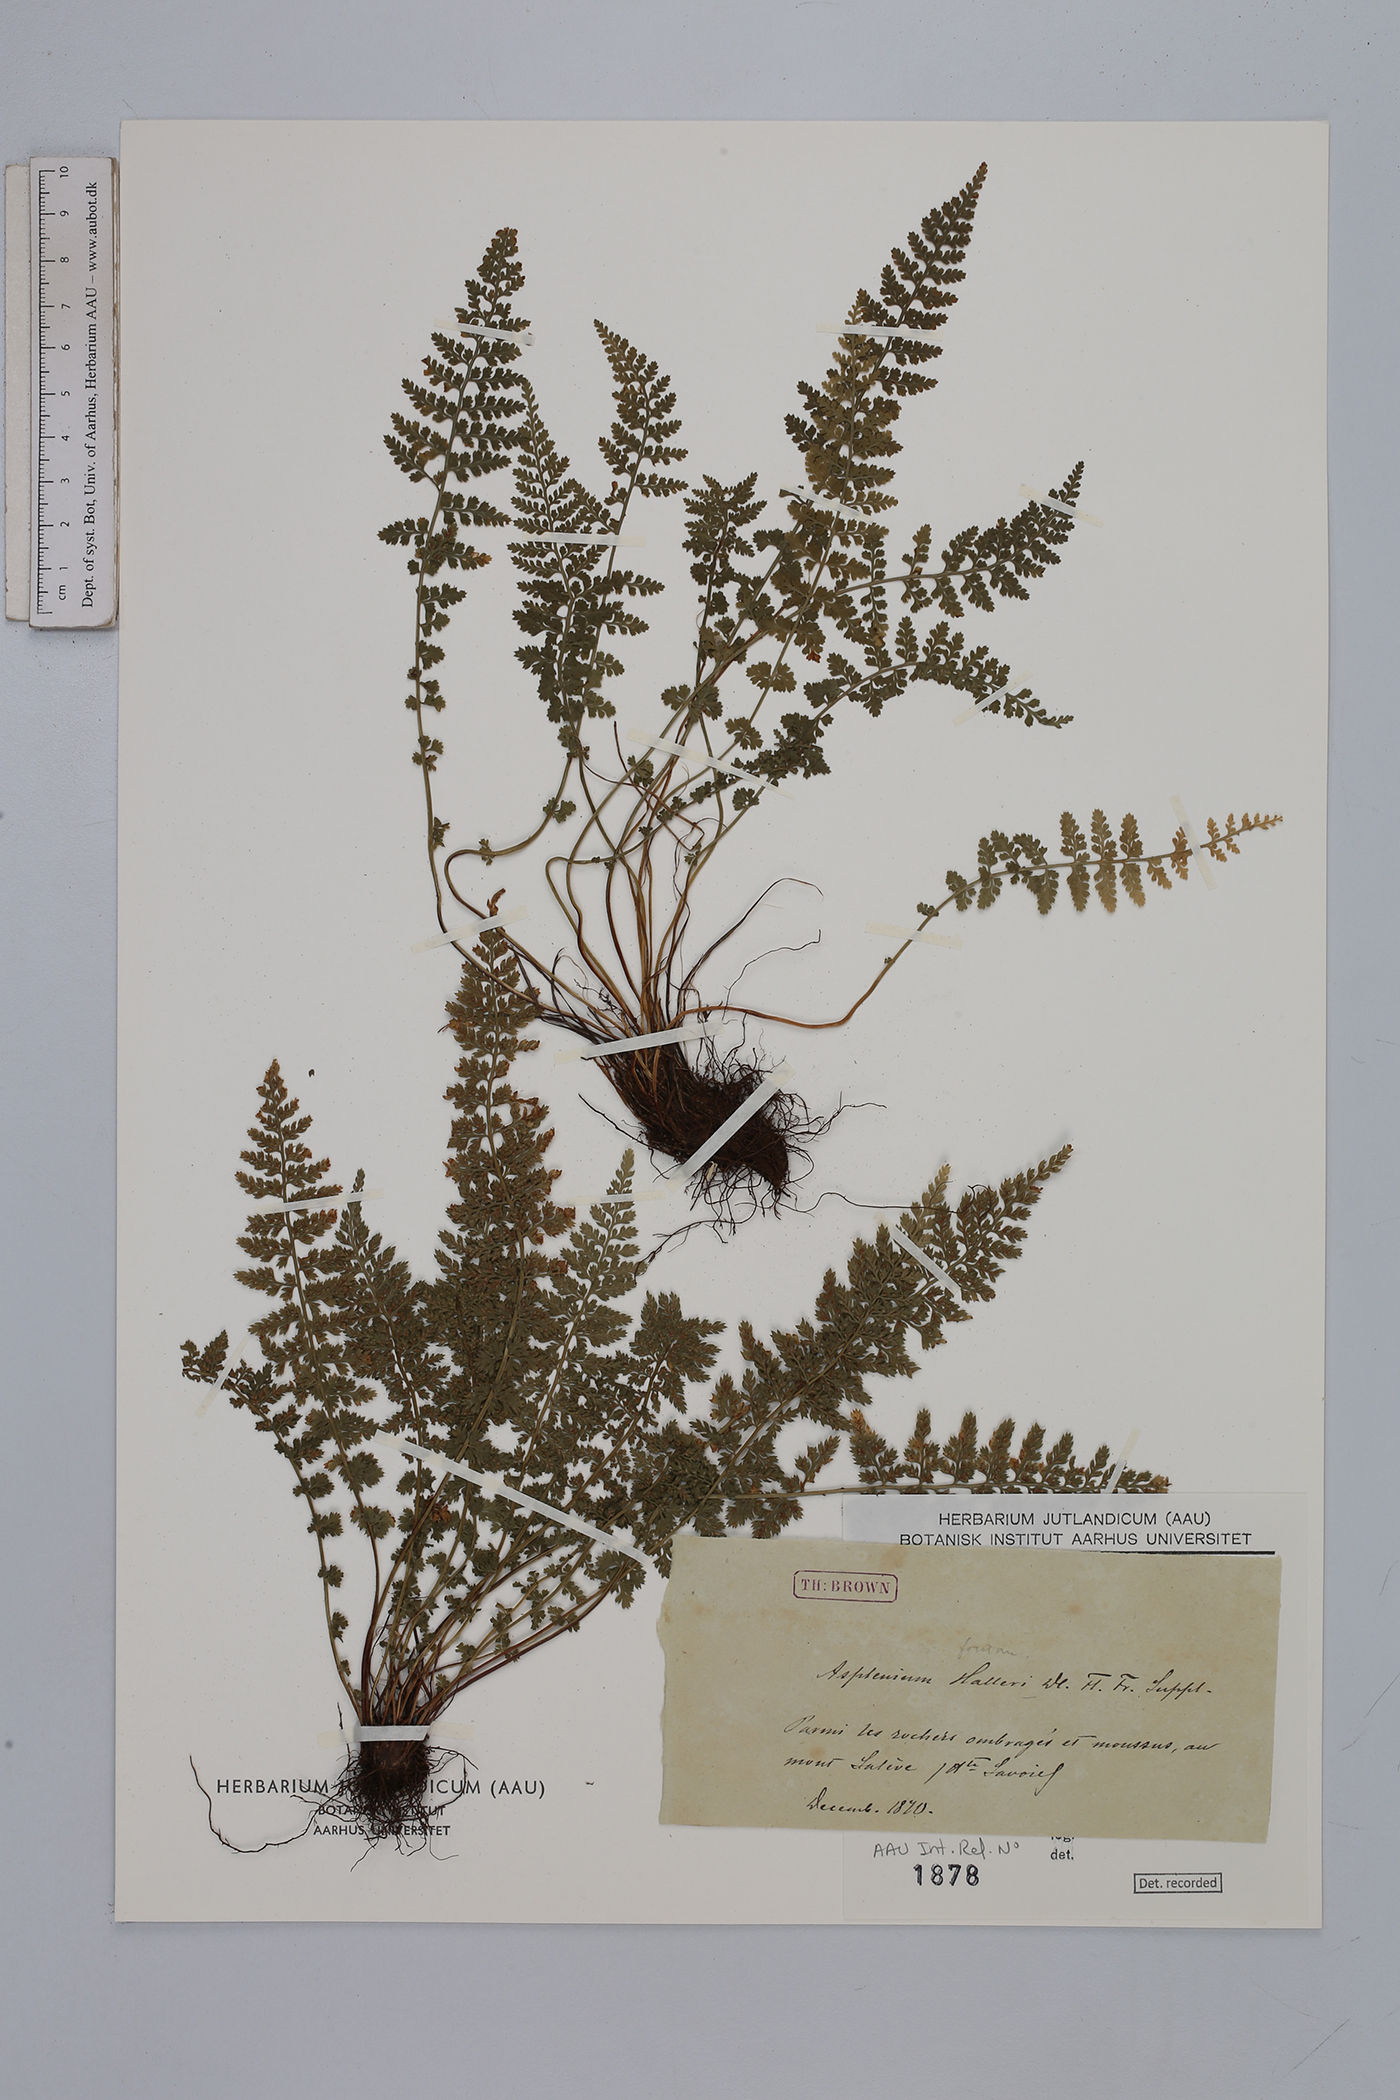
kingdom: Plantae
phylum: Tracheophyta
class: Polypodiopsida
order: Polypodiales
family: Aspleniaceae
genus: Asplenium
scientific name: Asplenium fontanum
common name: Fountain spleenwort
